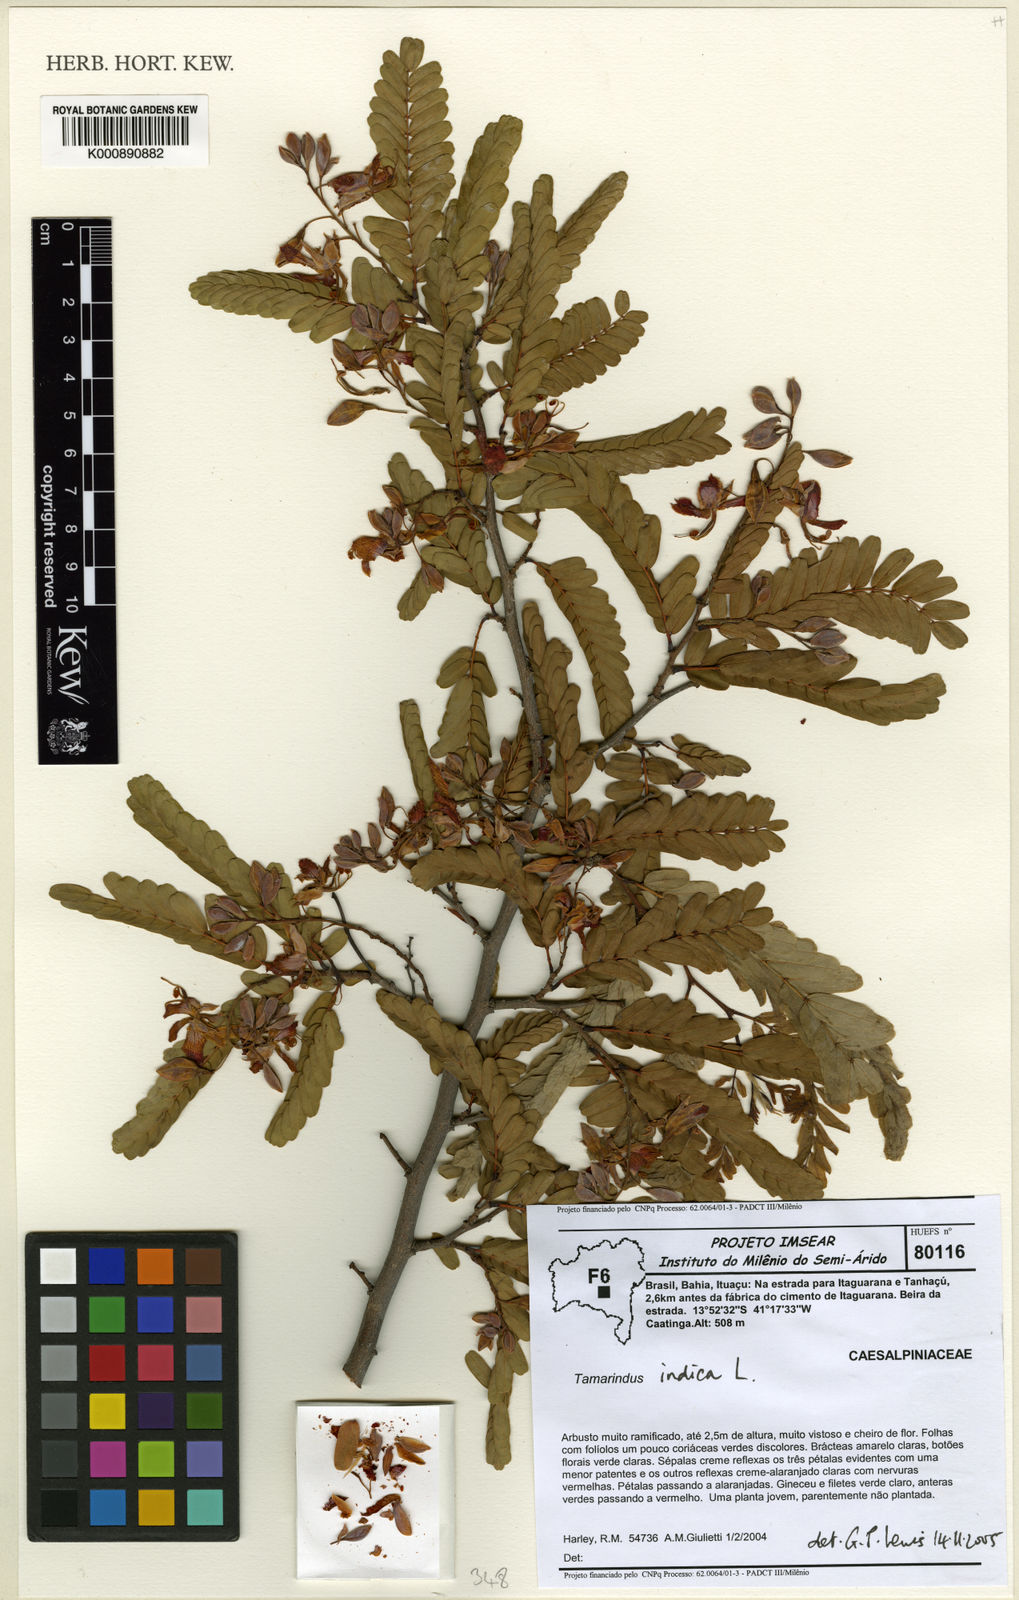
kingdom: Plantae
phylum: Tracheophyta
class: Magnoliopsida
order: Fabales
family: Fabaceae
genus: Tamarindus
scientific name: Tamarindus indica
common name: Tamarind
